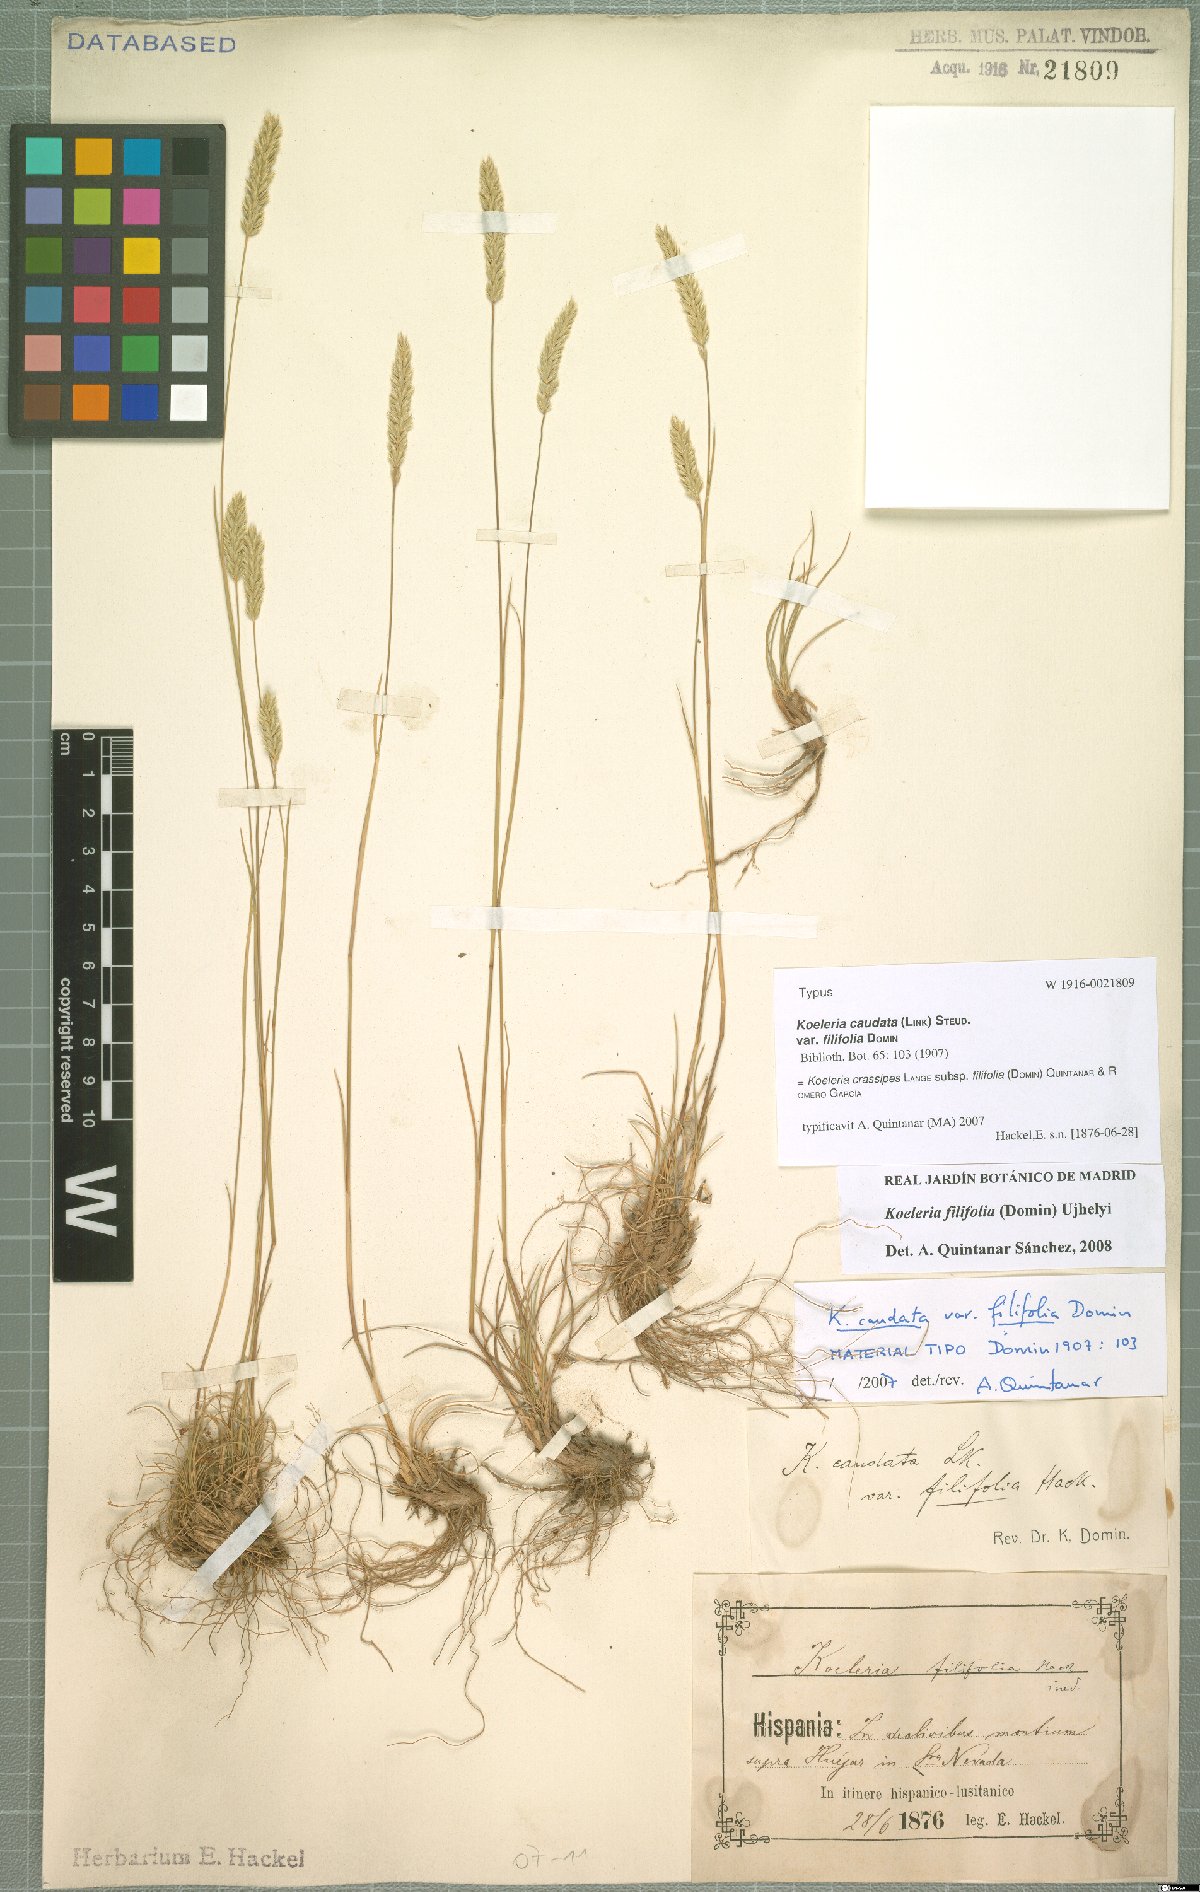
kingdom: Plantae
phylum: Tracheophyta
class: Liliopsida
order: Poales
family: Poaceae
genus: Koeleria
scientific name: Koeleria crassipes
